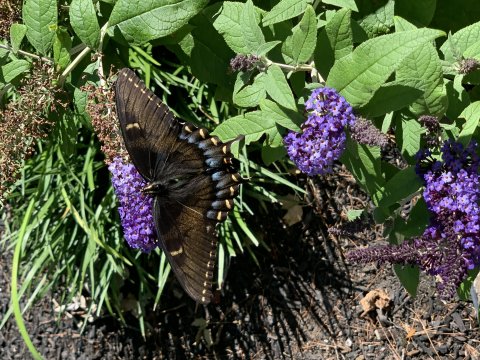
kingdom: Animalia
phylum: Arthropoda
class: Insecta
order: Lepidoptera
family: Papilionidae
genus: Pterourus
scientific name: Pterourus glaucus
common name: Eastern Tiger Swallowtail
